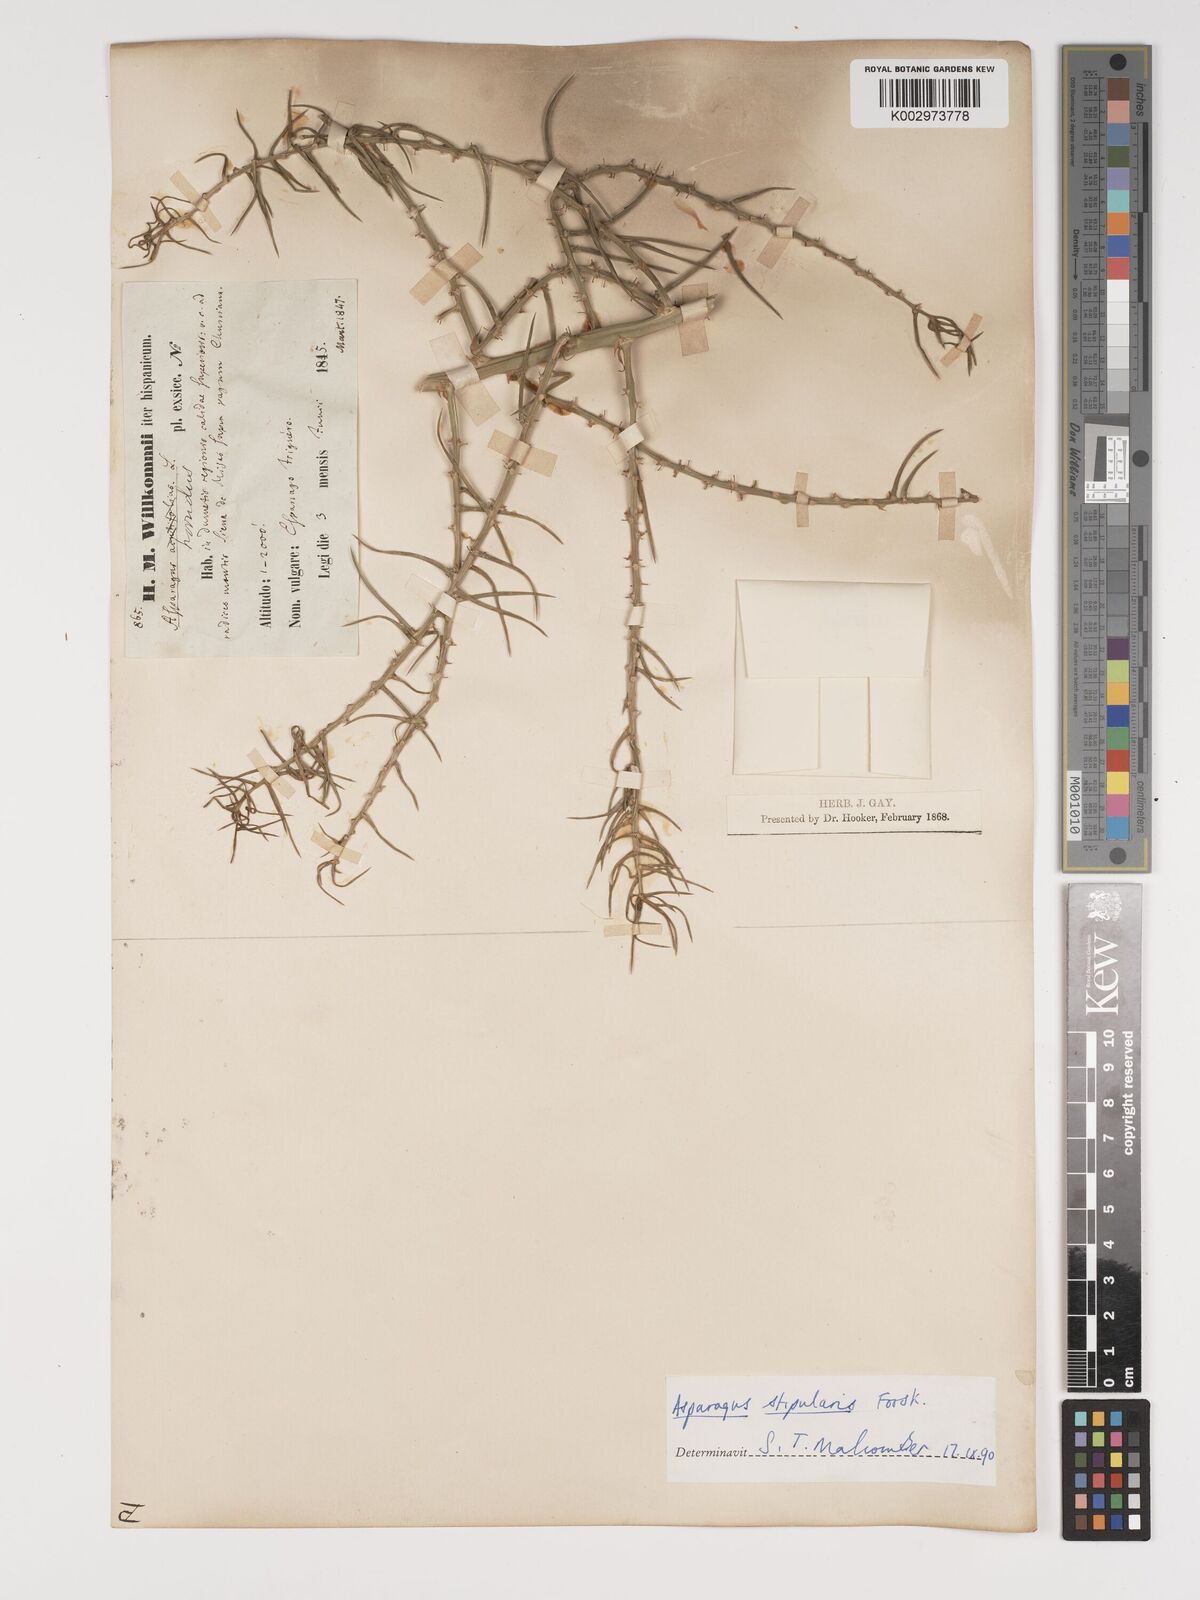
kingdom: Plantae
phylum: Tracheophyta
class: Liliopsida
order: Asparagales
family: Asparagaceae
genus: Asparagus
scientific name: Asparagus horridus
